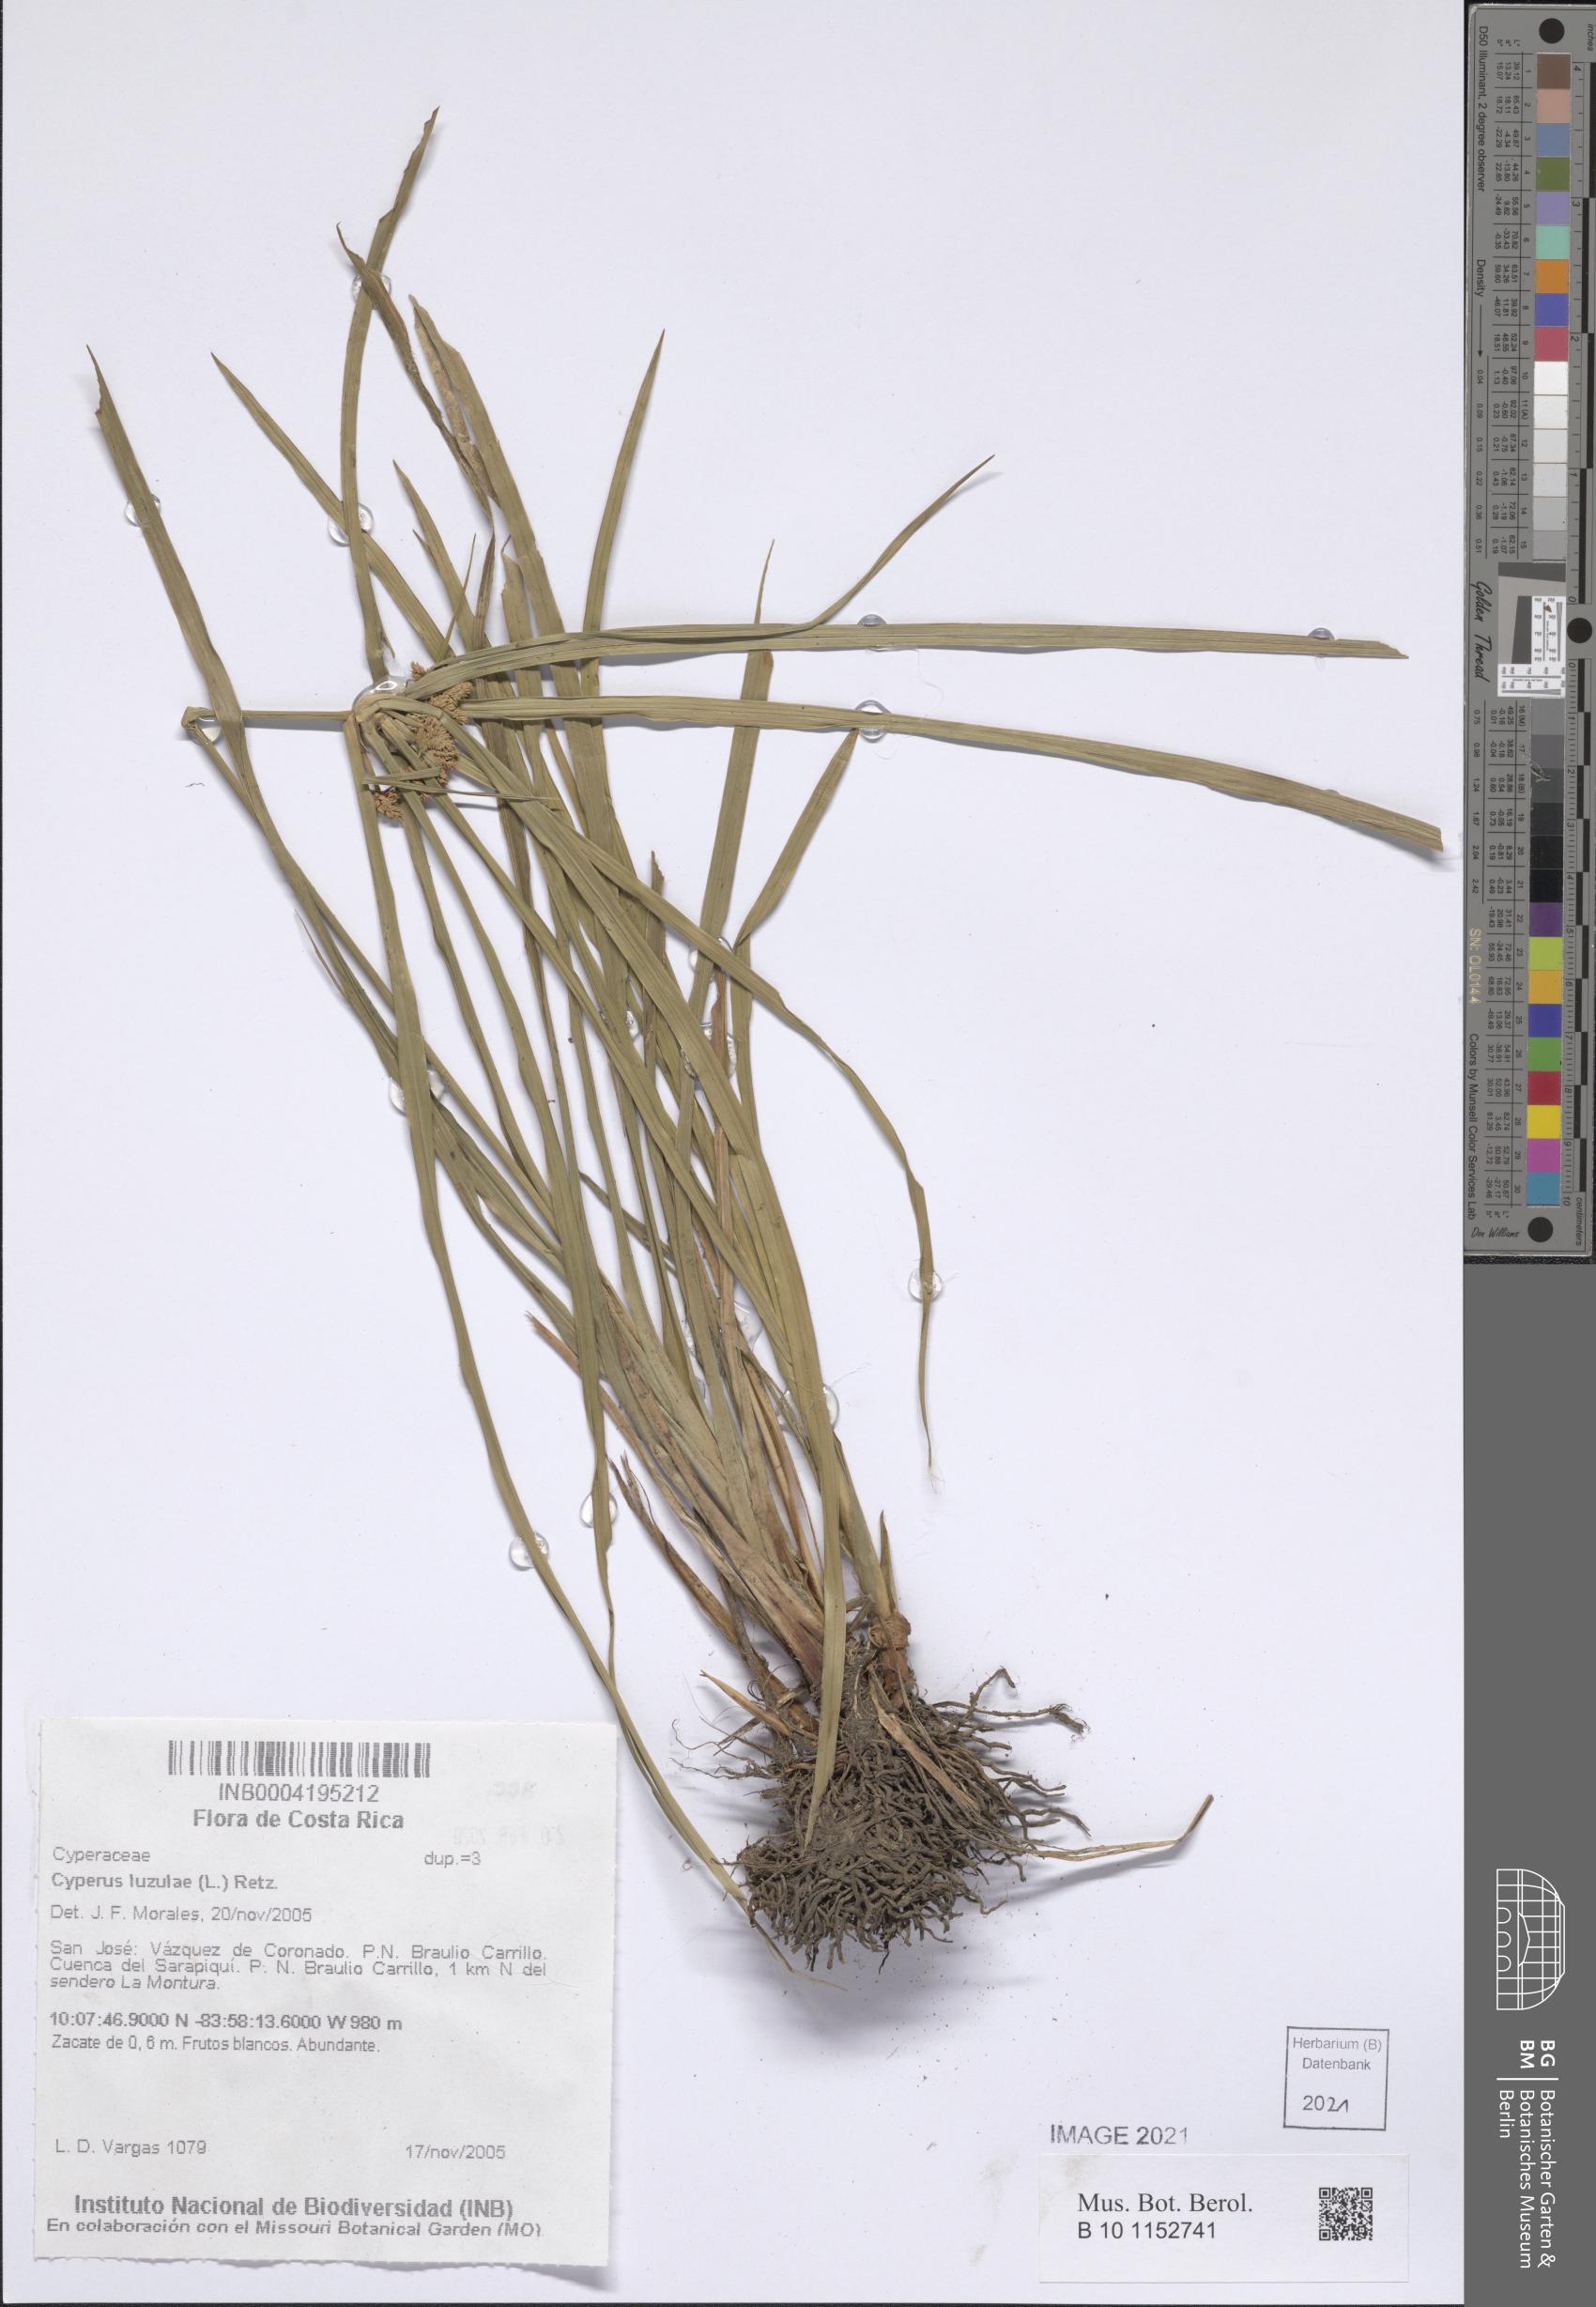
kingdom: Plantae
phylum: Tracheophyta
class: Liliopsida
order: Poales
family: Cyperaceae
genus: Cyperus
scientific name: Cyperus luzulae
